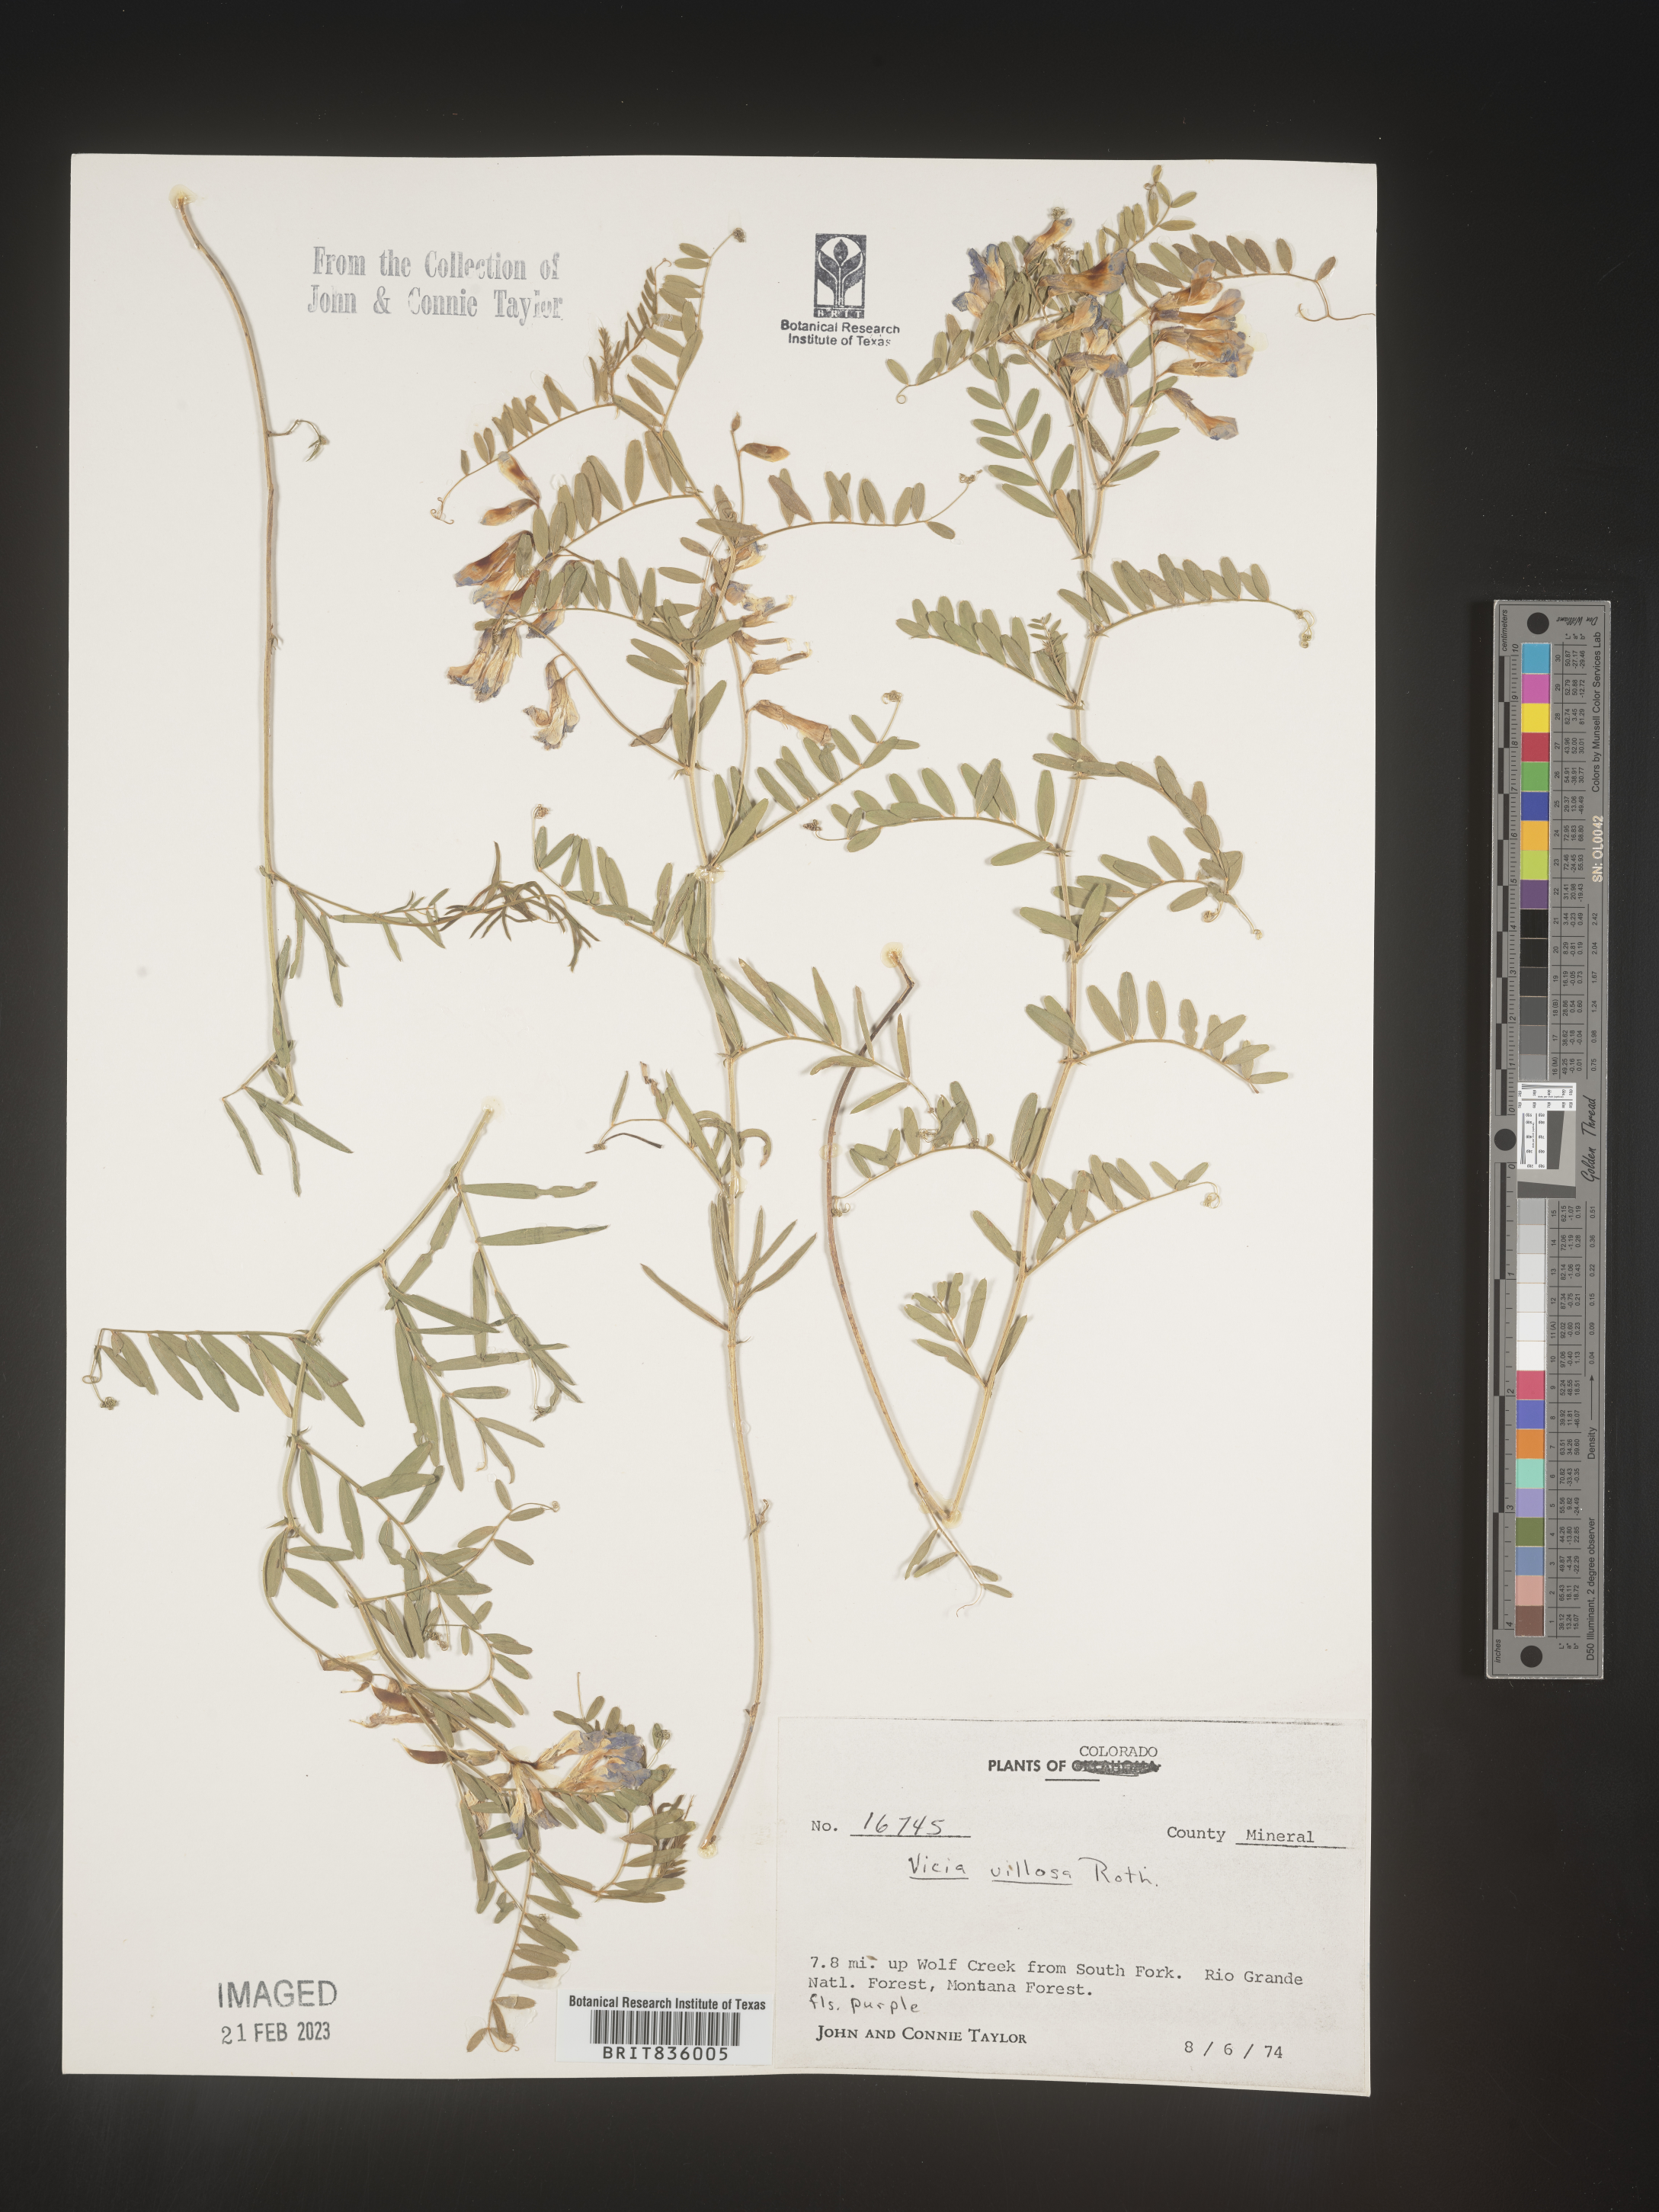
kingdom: Plantae
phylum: Tracheophyta
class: Magnoliopsida
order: Fabales
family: Fabaceae
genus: Vicia
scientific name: Vicia villosa
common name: Fodder vetch
